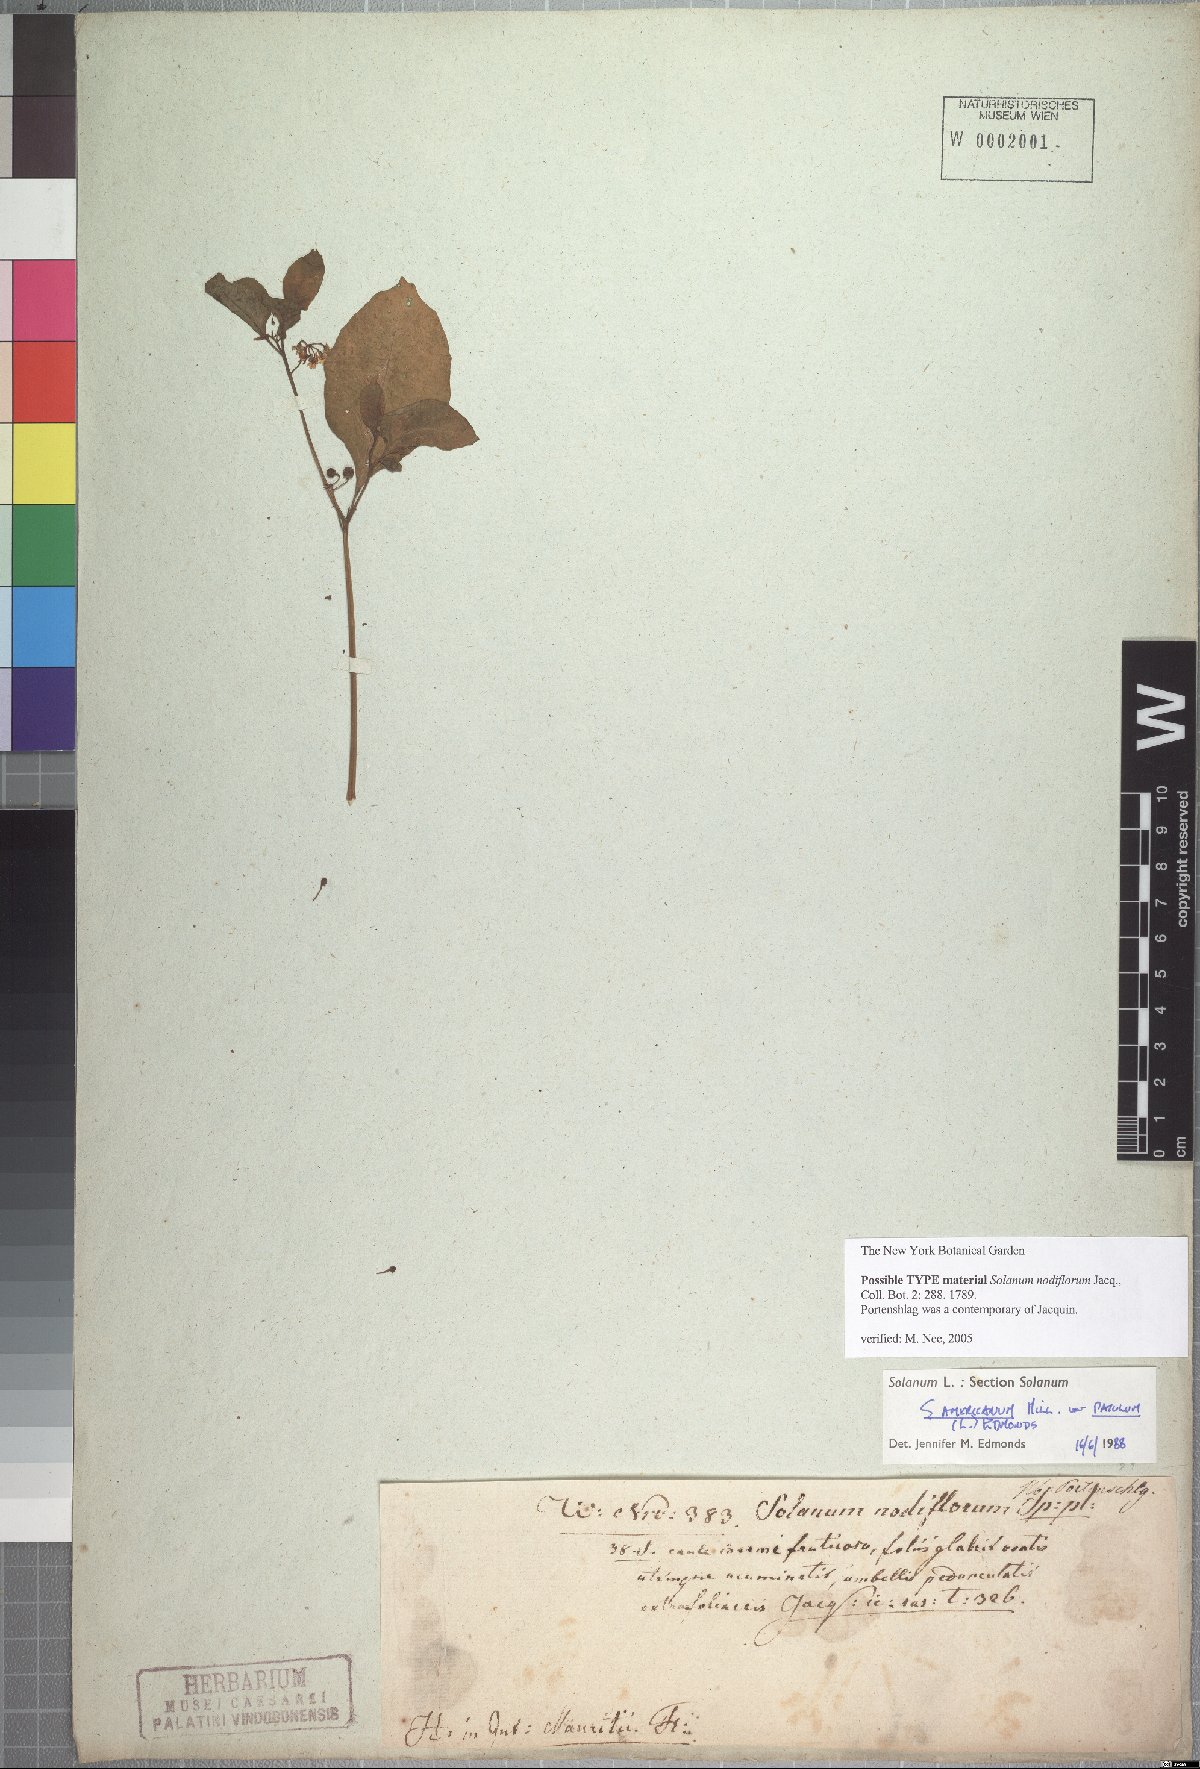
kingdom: Plantae
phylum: Tracheophyta
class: Magnoliopsida
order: Solanales
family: Solanaceae
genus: Solanum
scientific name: Solanum americanum
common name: American black nightshade
